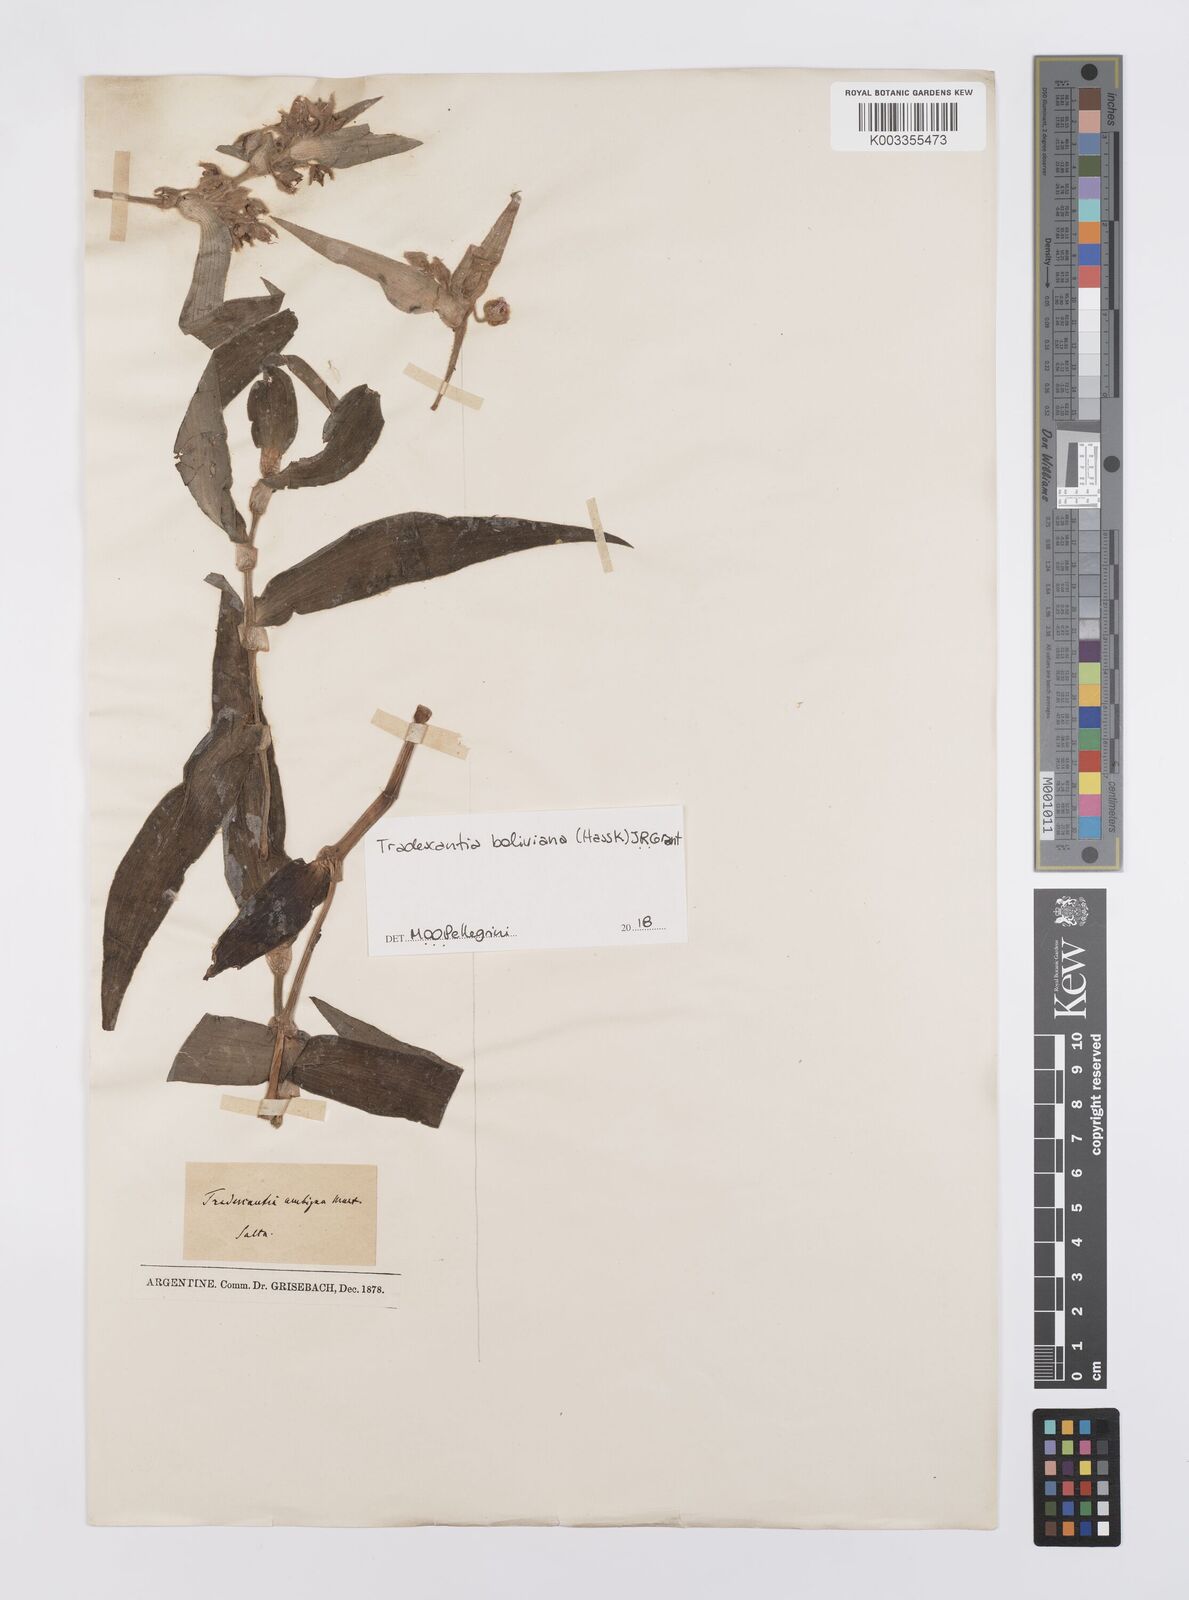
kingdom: Plantae
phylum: Tracheophyta
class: Liliopsida
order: Commelinales
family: Commelinaceae
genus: Tradescantia
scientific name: Tradescantia boliviana
